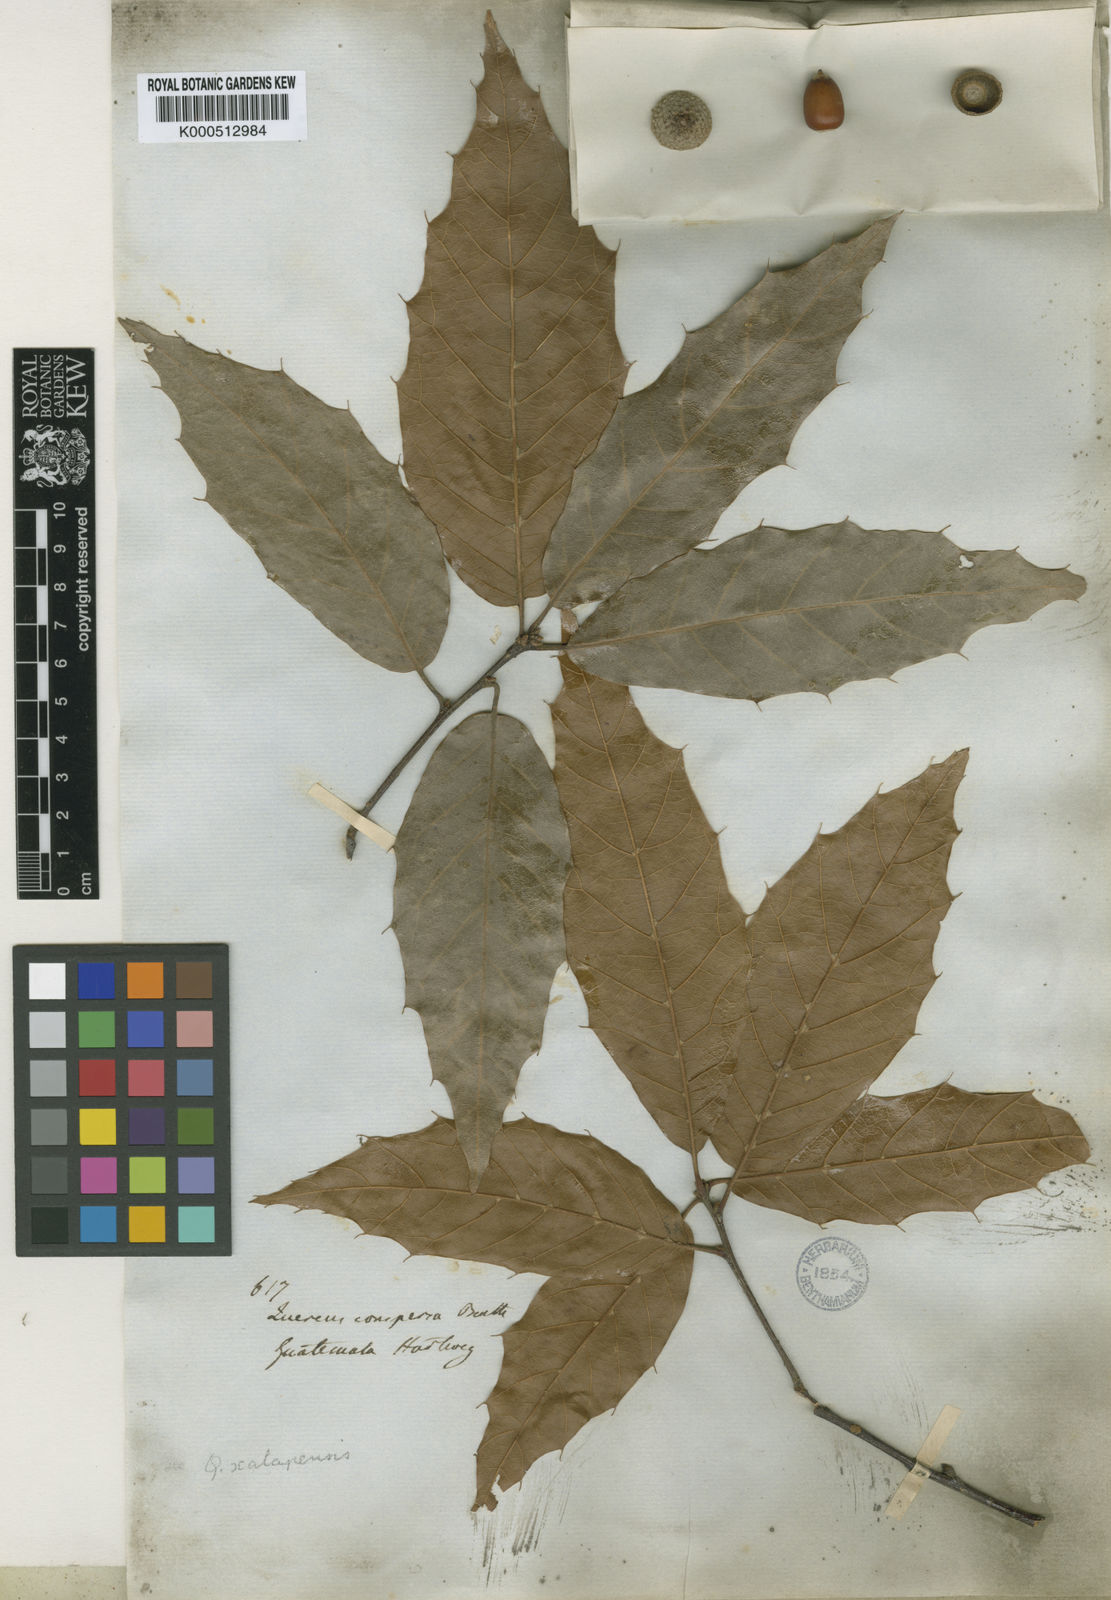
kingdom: Plantae
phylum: Tracheophyta
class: Magnoliopsida
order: Fagales
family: Fagaceae
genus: Quercus
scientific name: Quercus acutifolia
